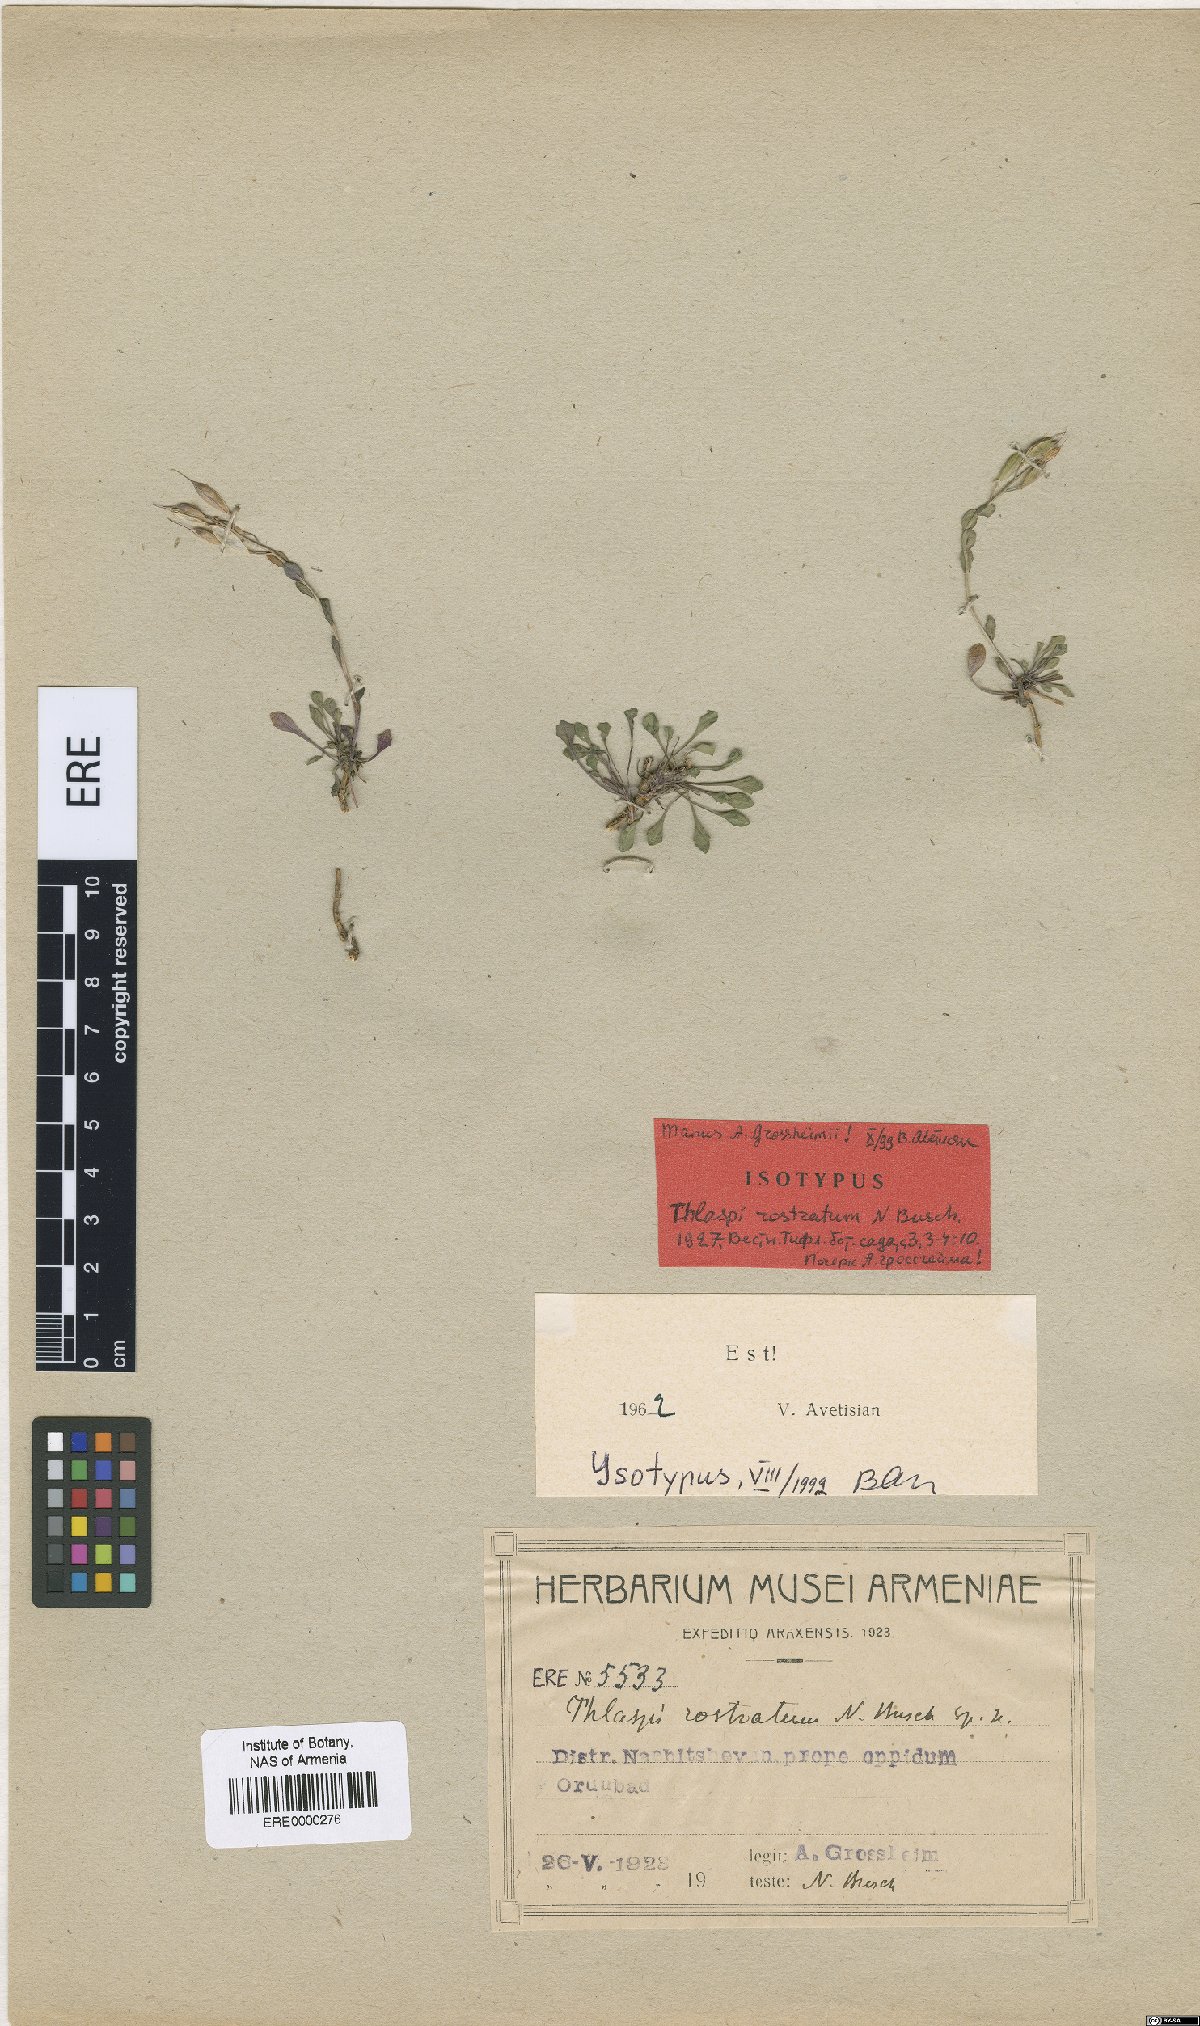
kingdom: Plantae
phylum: Tracheophyta
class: Magnoliopsida
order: Brassicales
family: Brassicaceae
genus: Noccaea
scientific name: Noccaea rostrata
